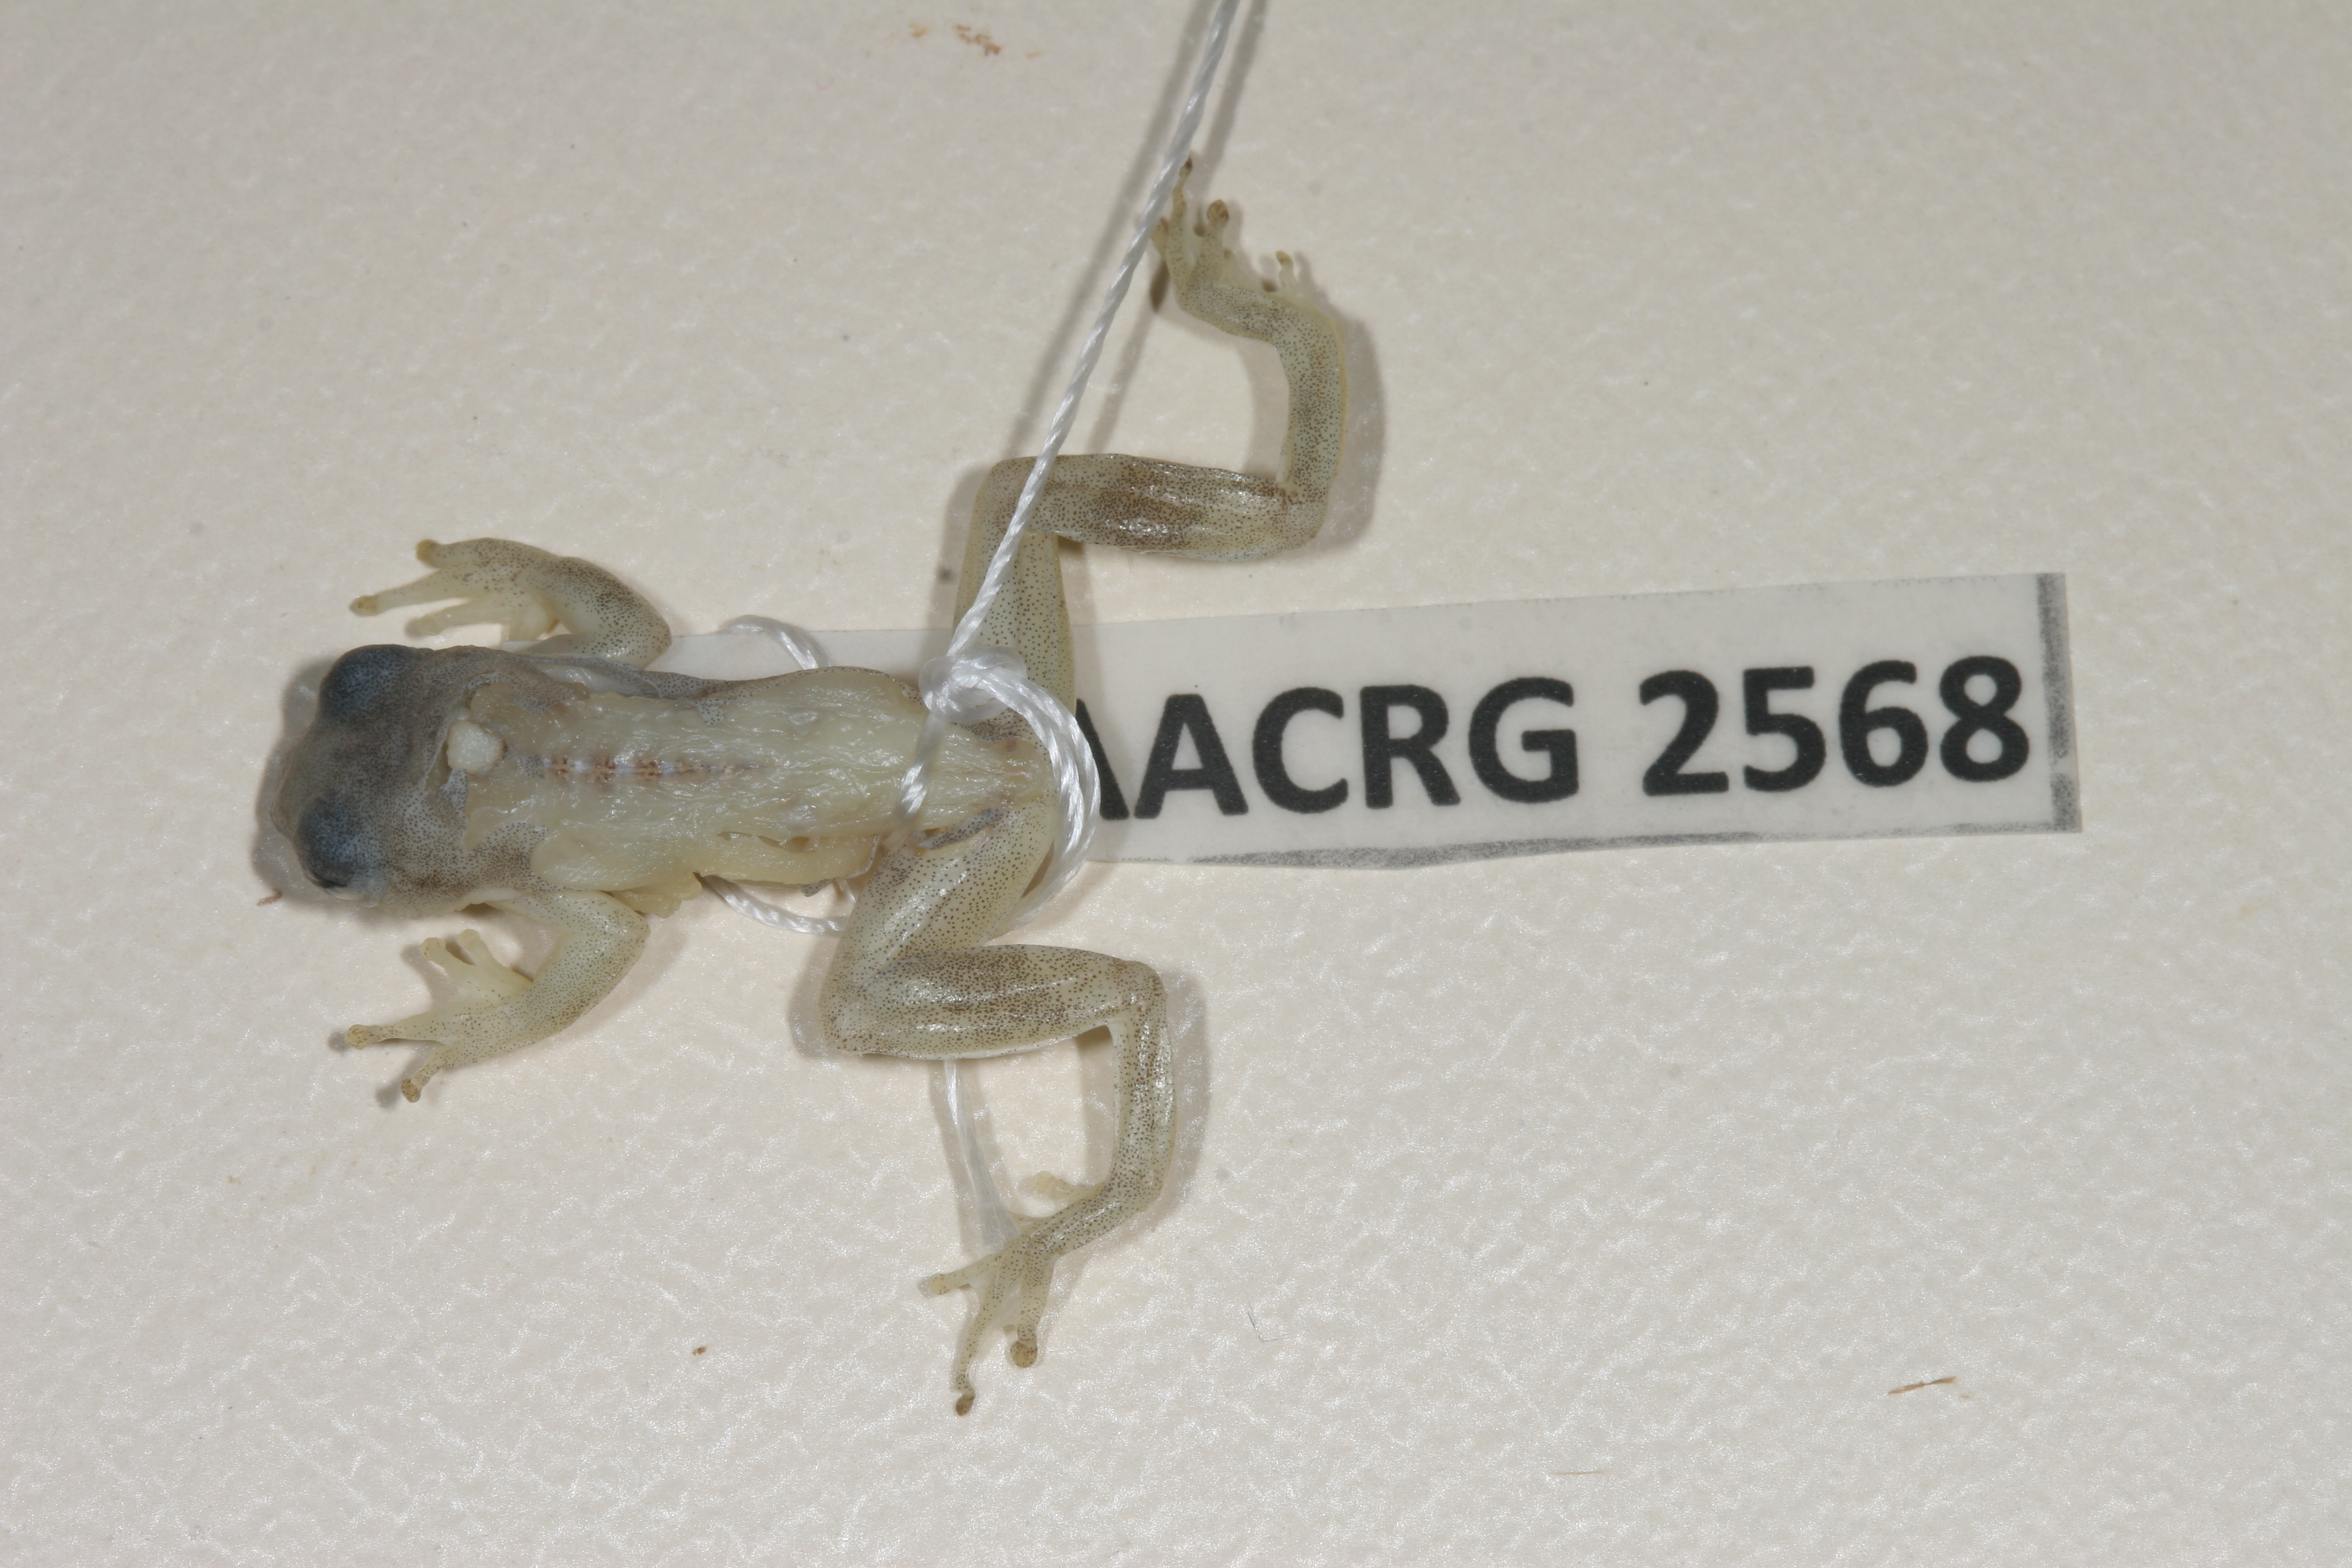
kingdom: Animalia
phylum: Chordata
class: Amphibia
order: Anura
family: Hyperoliidae
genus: Afrixalus
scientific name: Afrixalus aureus
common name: Golden banana frog
